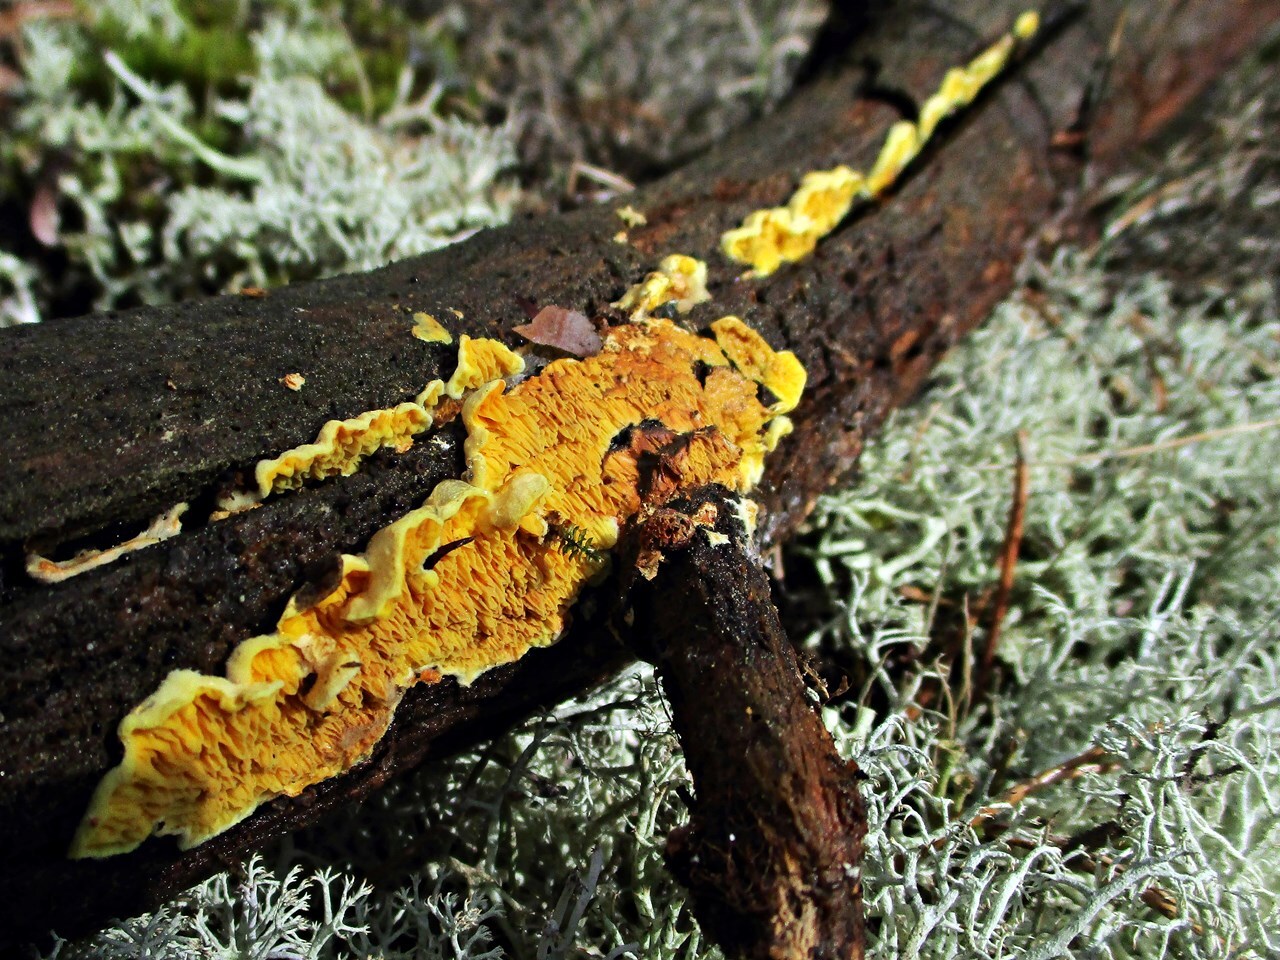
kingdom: Fungi
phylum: Basidiomycota
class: Agaricomycetes
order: Boletales
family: Tapinellaceae
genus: Pseudomerulius
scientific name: Pseudomerulius aureus
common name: Orange netcrust
